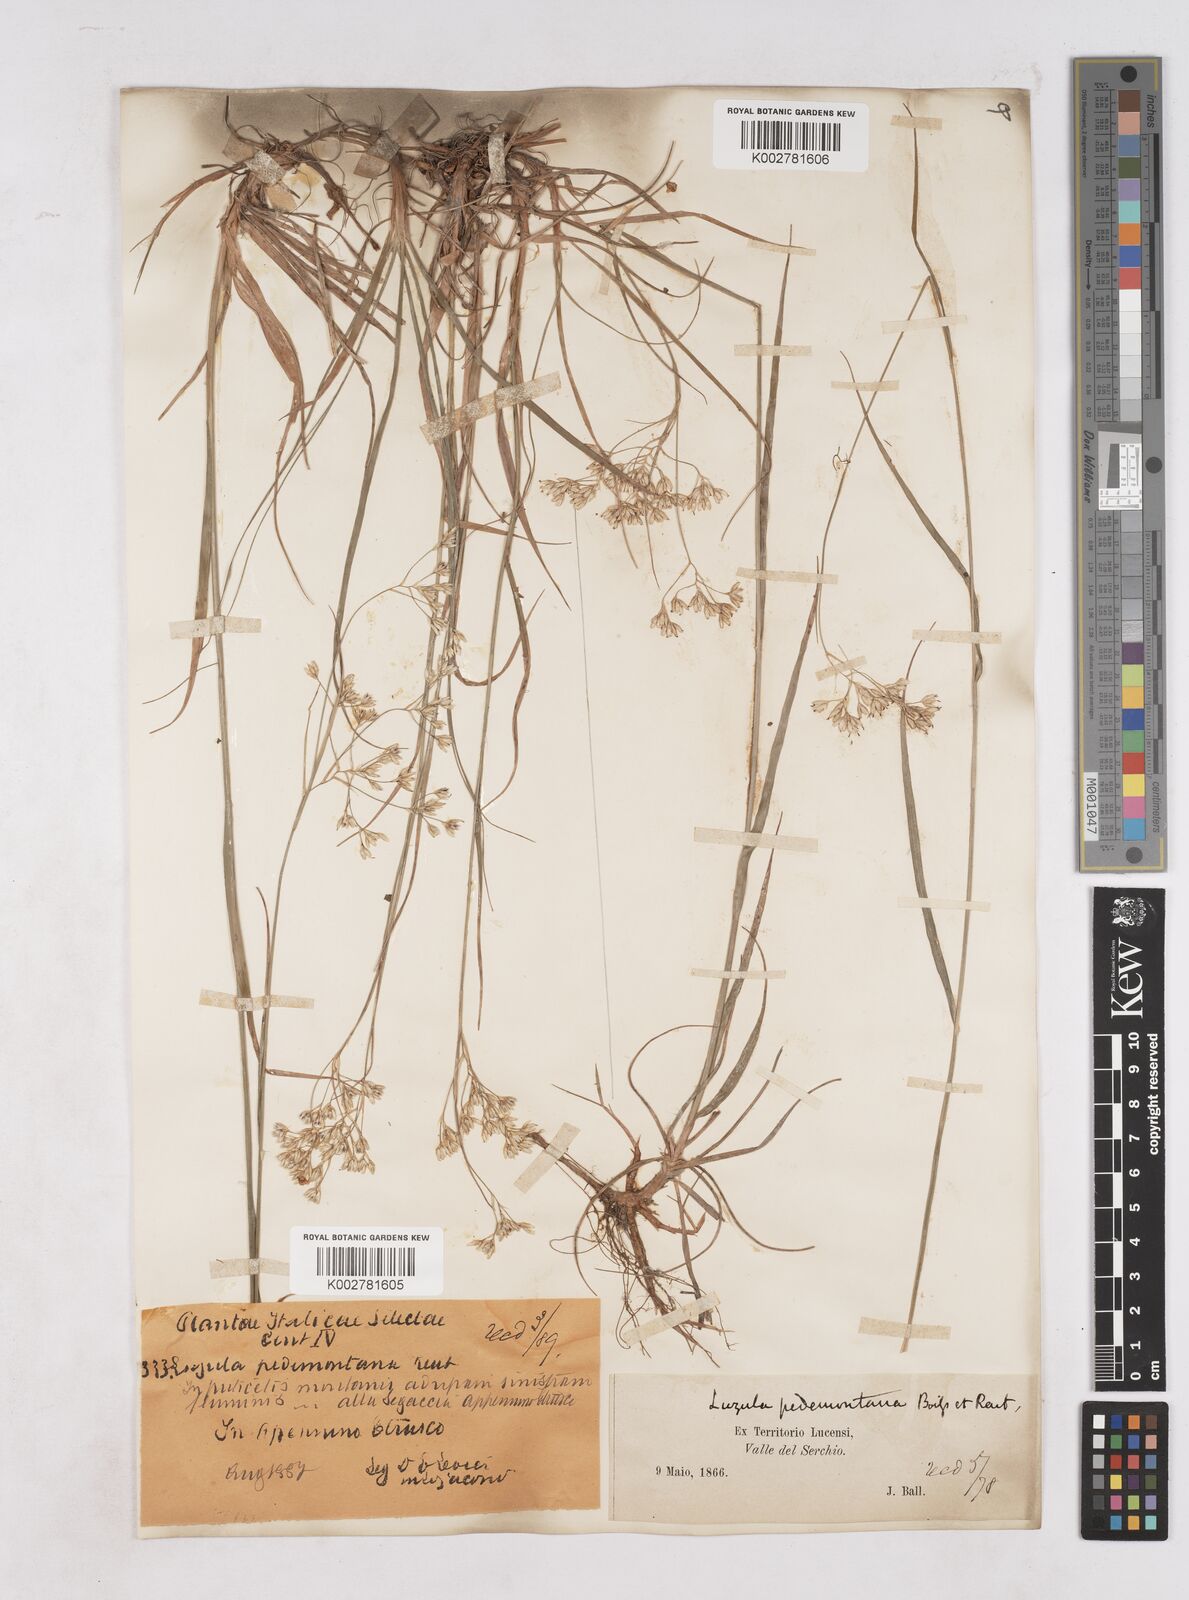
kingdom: Plantae
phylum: Tracheophyta
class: Liliopsida
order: Poales
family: Juncaceae
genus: Luzula
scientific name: Luzula pedemontana
